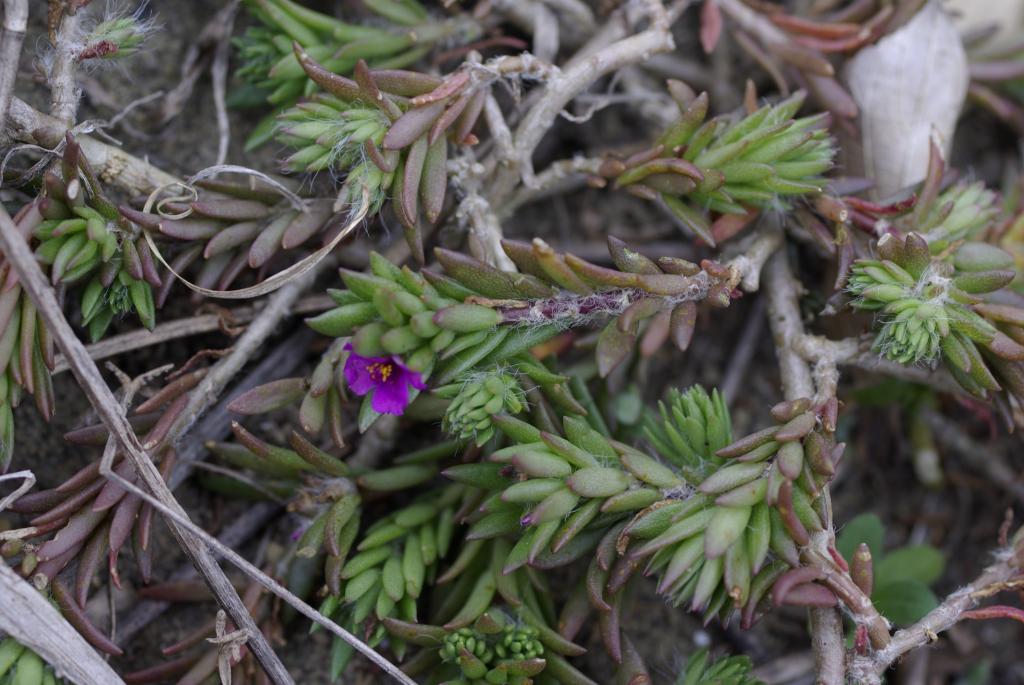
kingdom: Plantae
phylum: Tracheophyta
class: Magnoliopsida
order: Caryophyllales
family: Portulacaceae
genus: Portulaca
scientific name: Portulaca pilosa
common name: Kiss me quick
